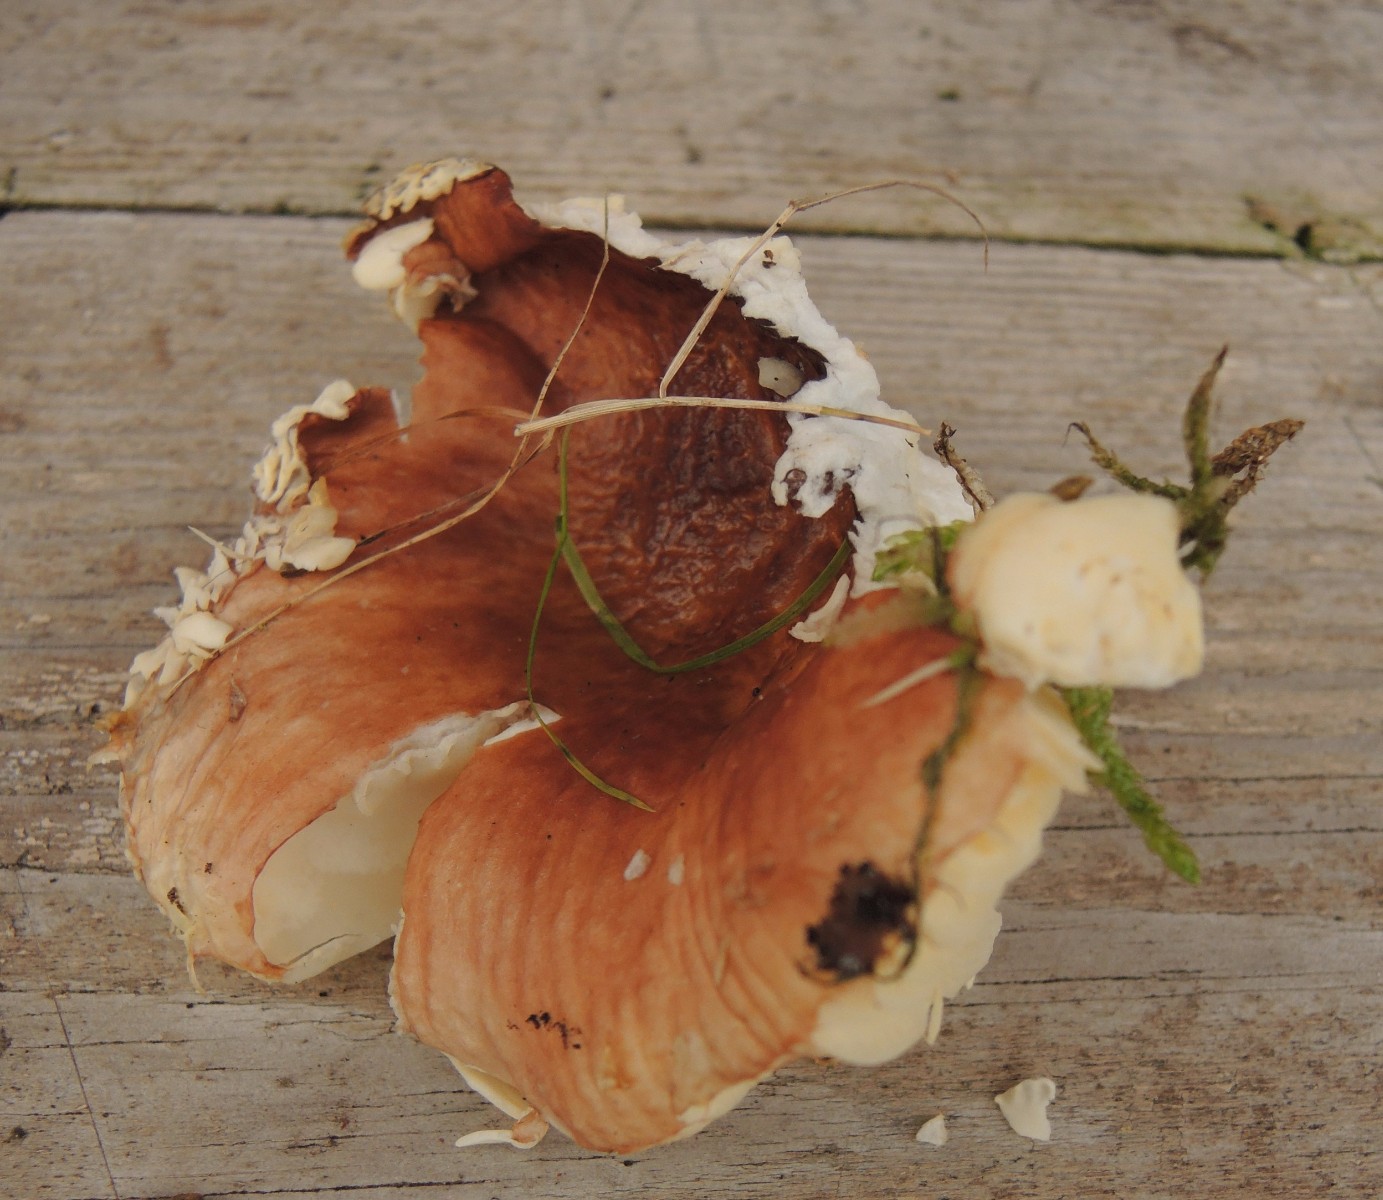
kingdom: Fungi
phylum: Basidiomycota
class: Agaricomycetes
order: Russulales
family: Russulaceae
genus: Russula
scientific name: Russula nauseosa
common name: spinkel skørhat
